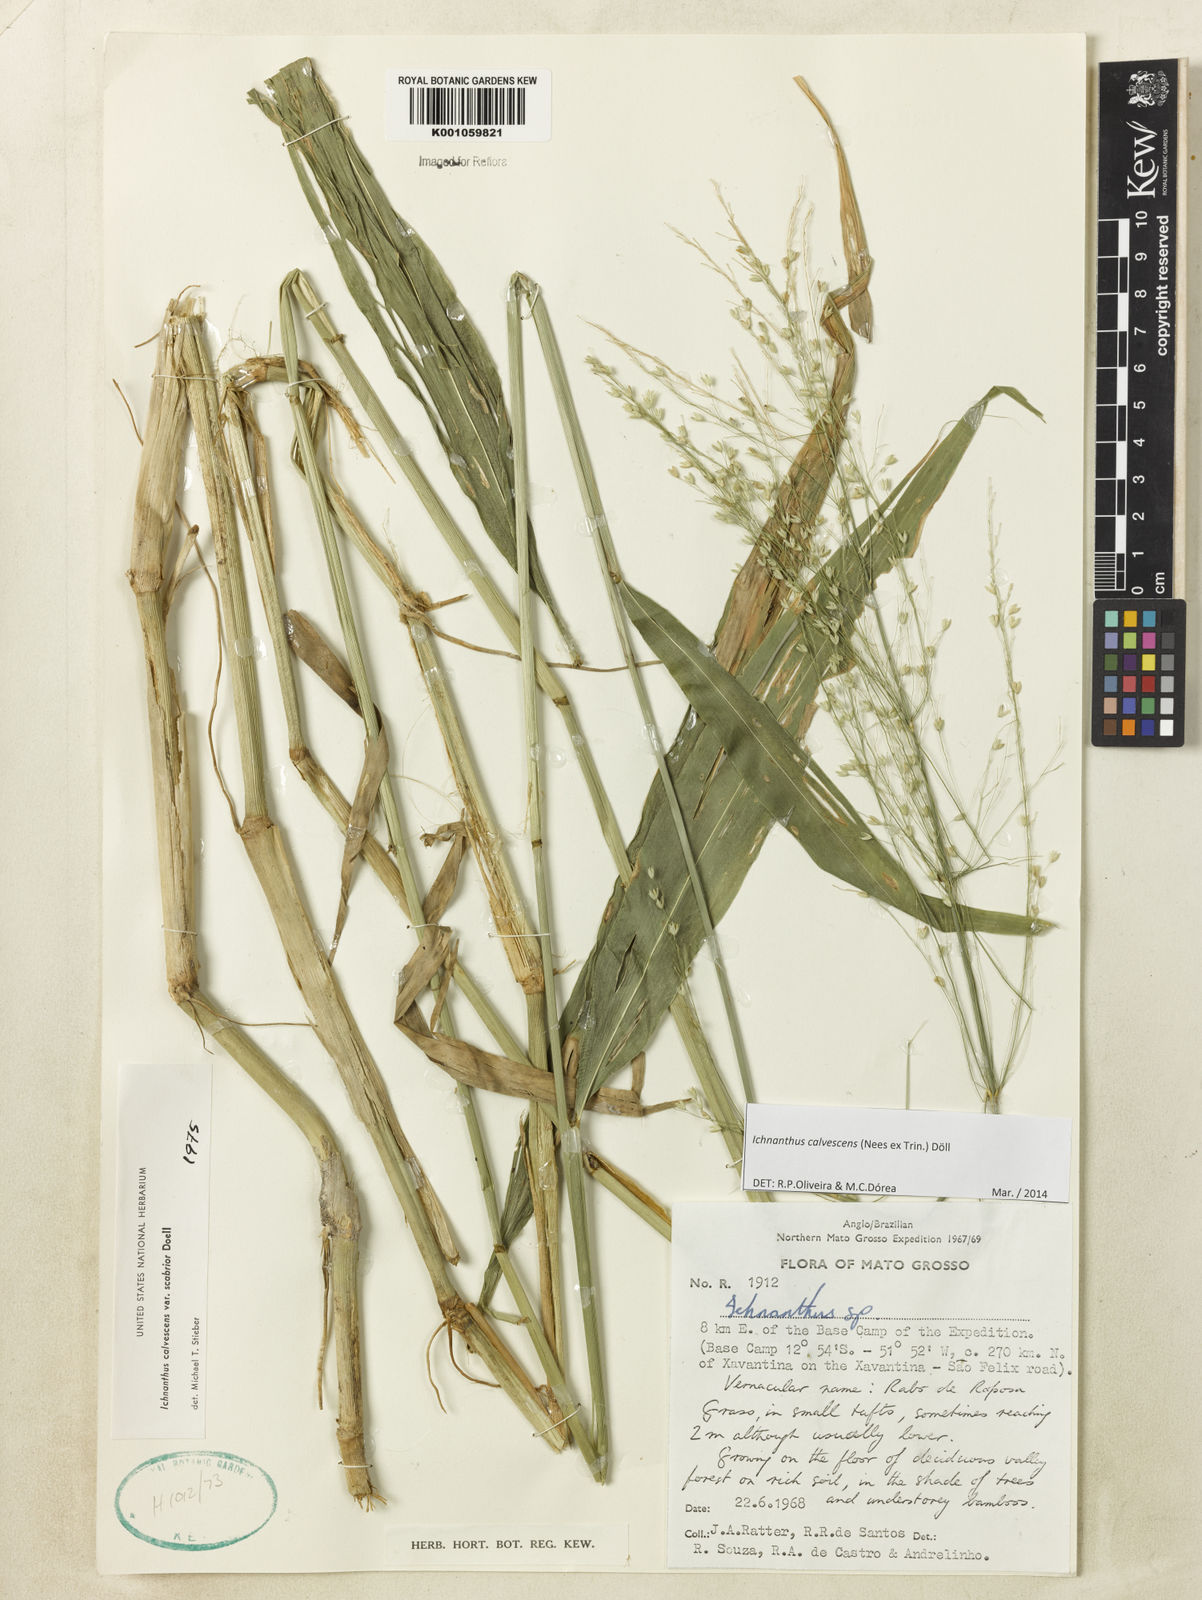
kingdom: Plantae
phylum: Tracheophyta
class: Liliopsida
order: Poales
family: Poaceae
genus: Ichnanthus
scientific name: Ichnanthus
